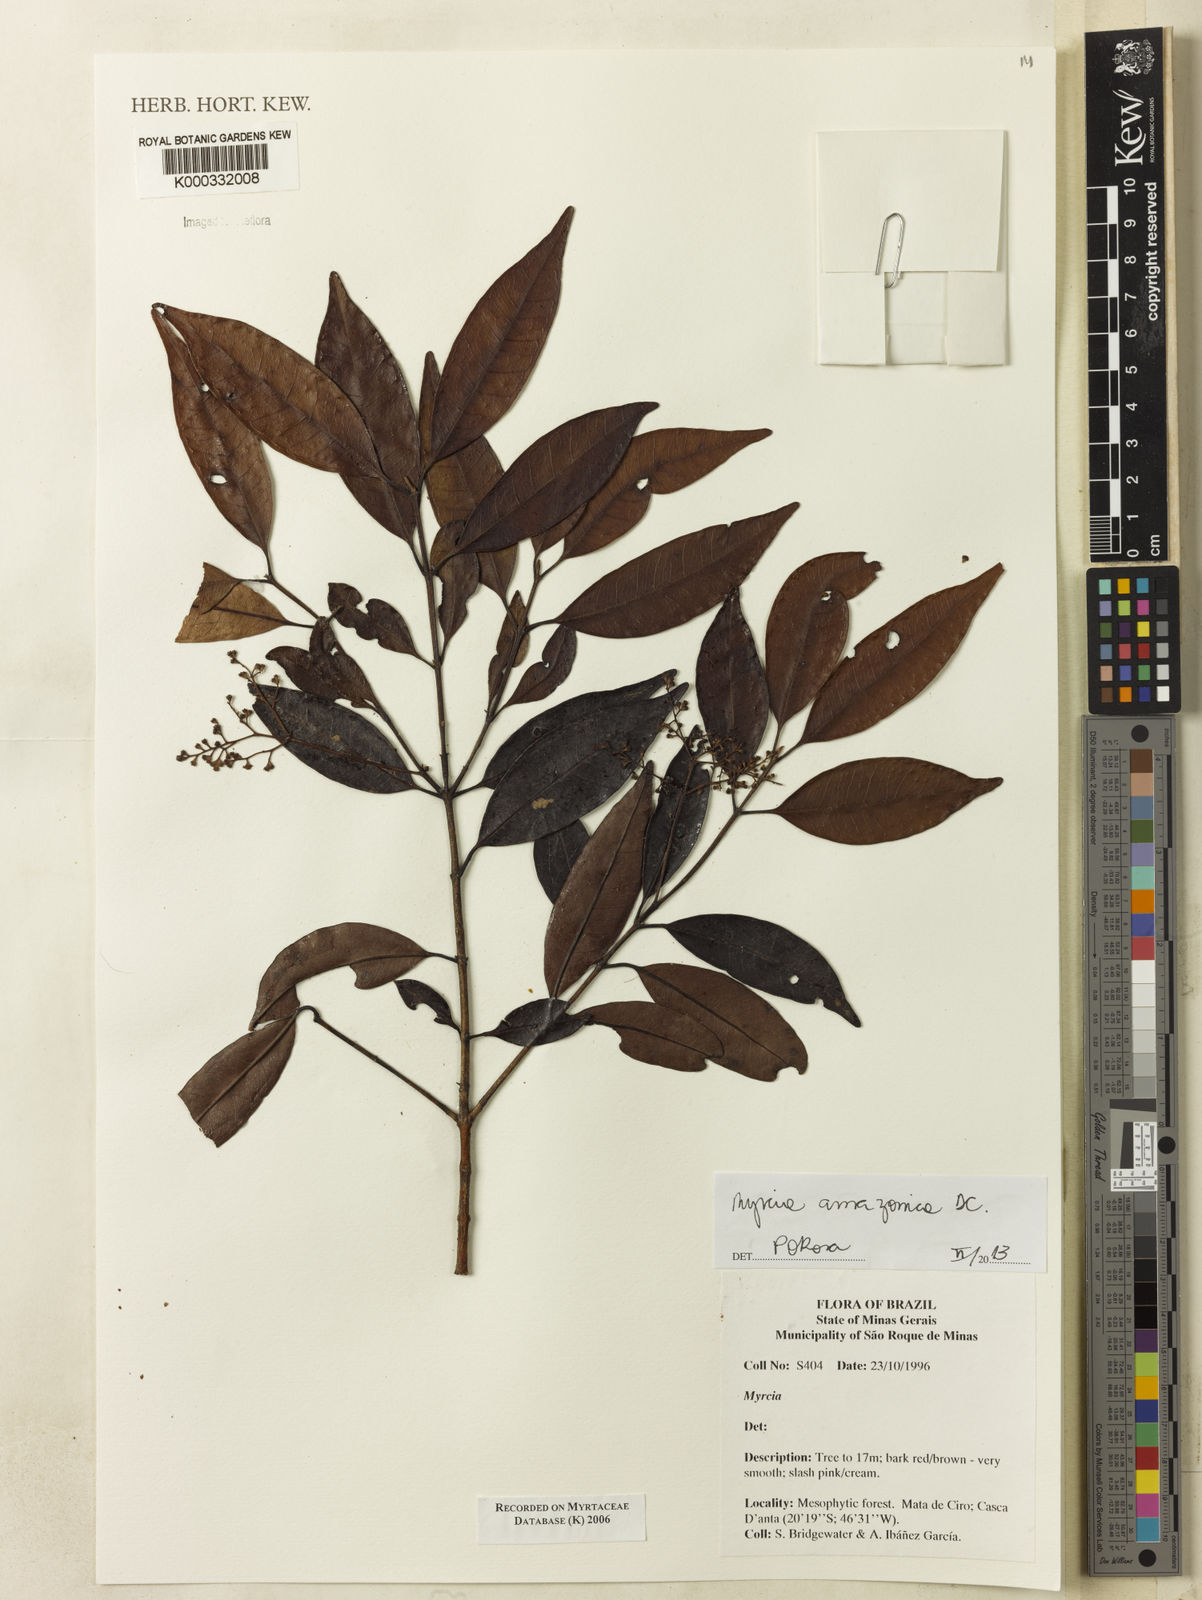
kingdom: Plantae
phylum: Tracheophyta
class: Magnoliopsida
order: Myrtales
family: Myrtaceae
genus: Myrcia
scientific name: Myrcia
